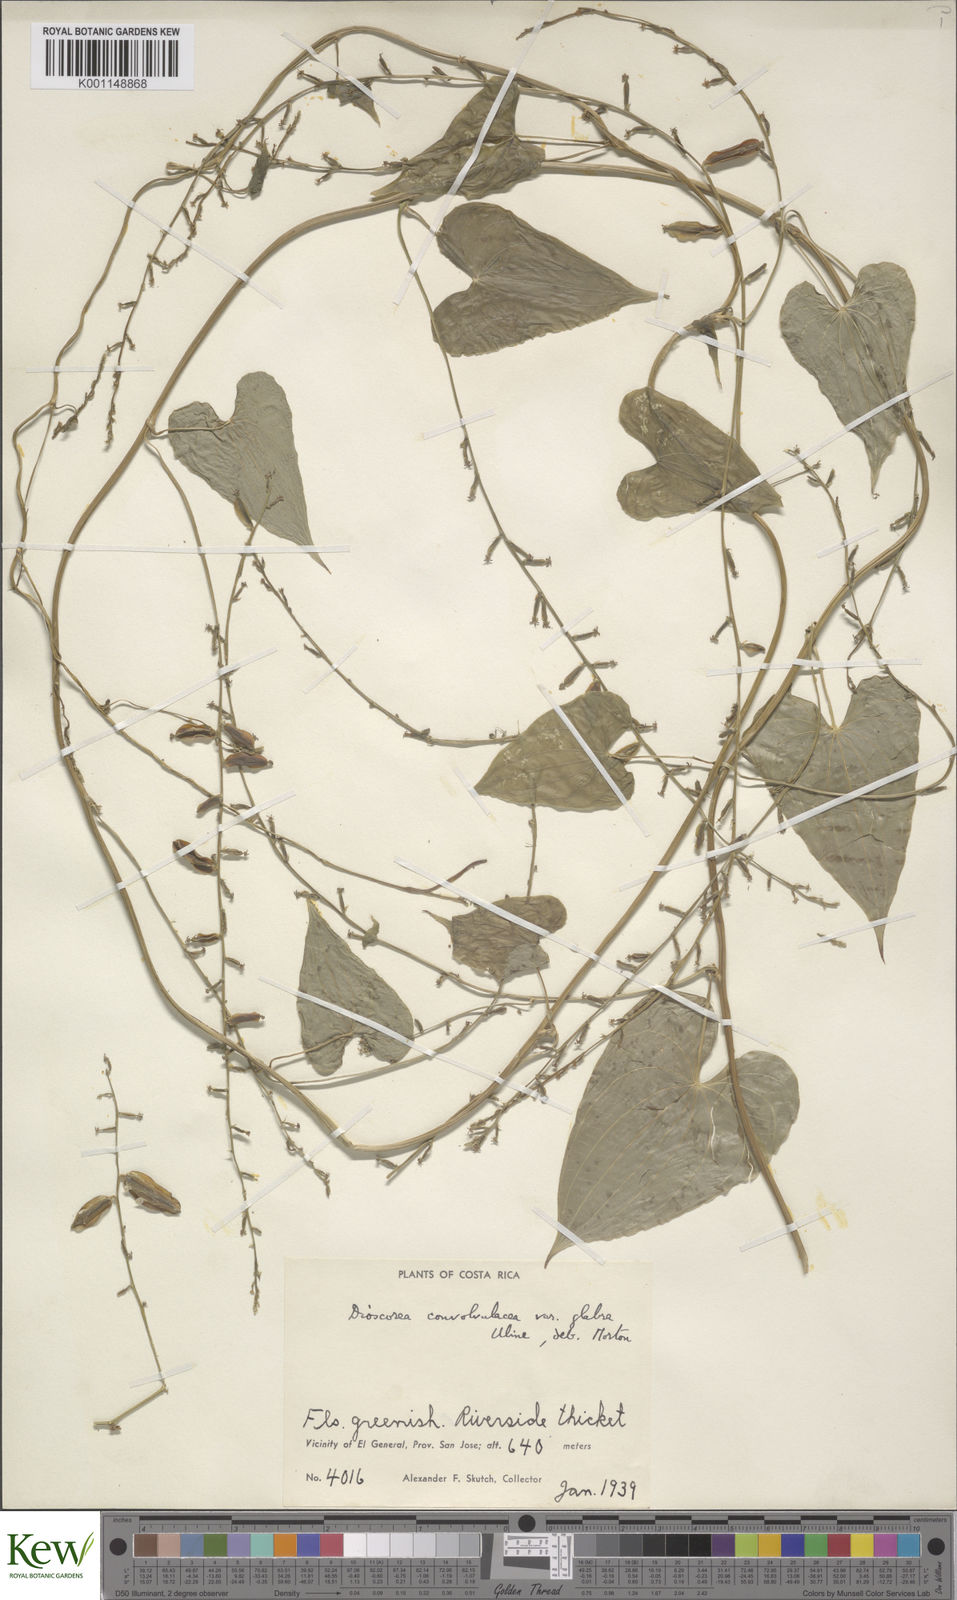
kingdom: Plantae
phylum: Tracheophyta
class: Liliopsida
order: Dioscoreales
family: Dioscoreaceae
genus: Dioscorea
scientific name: Dioscorea convolvulacea
